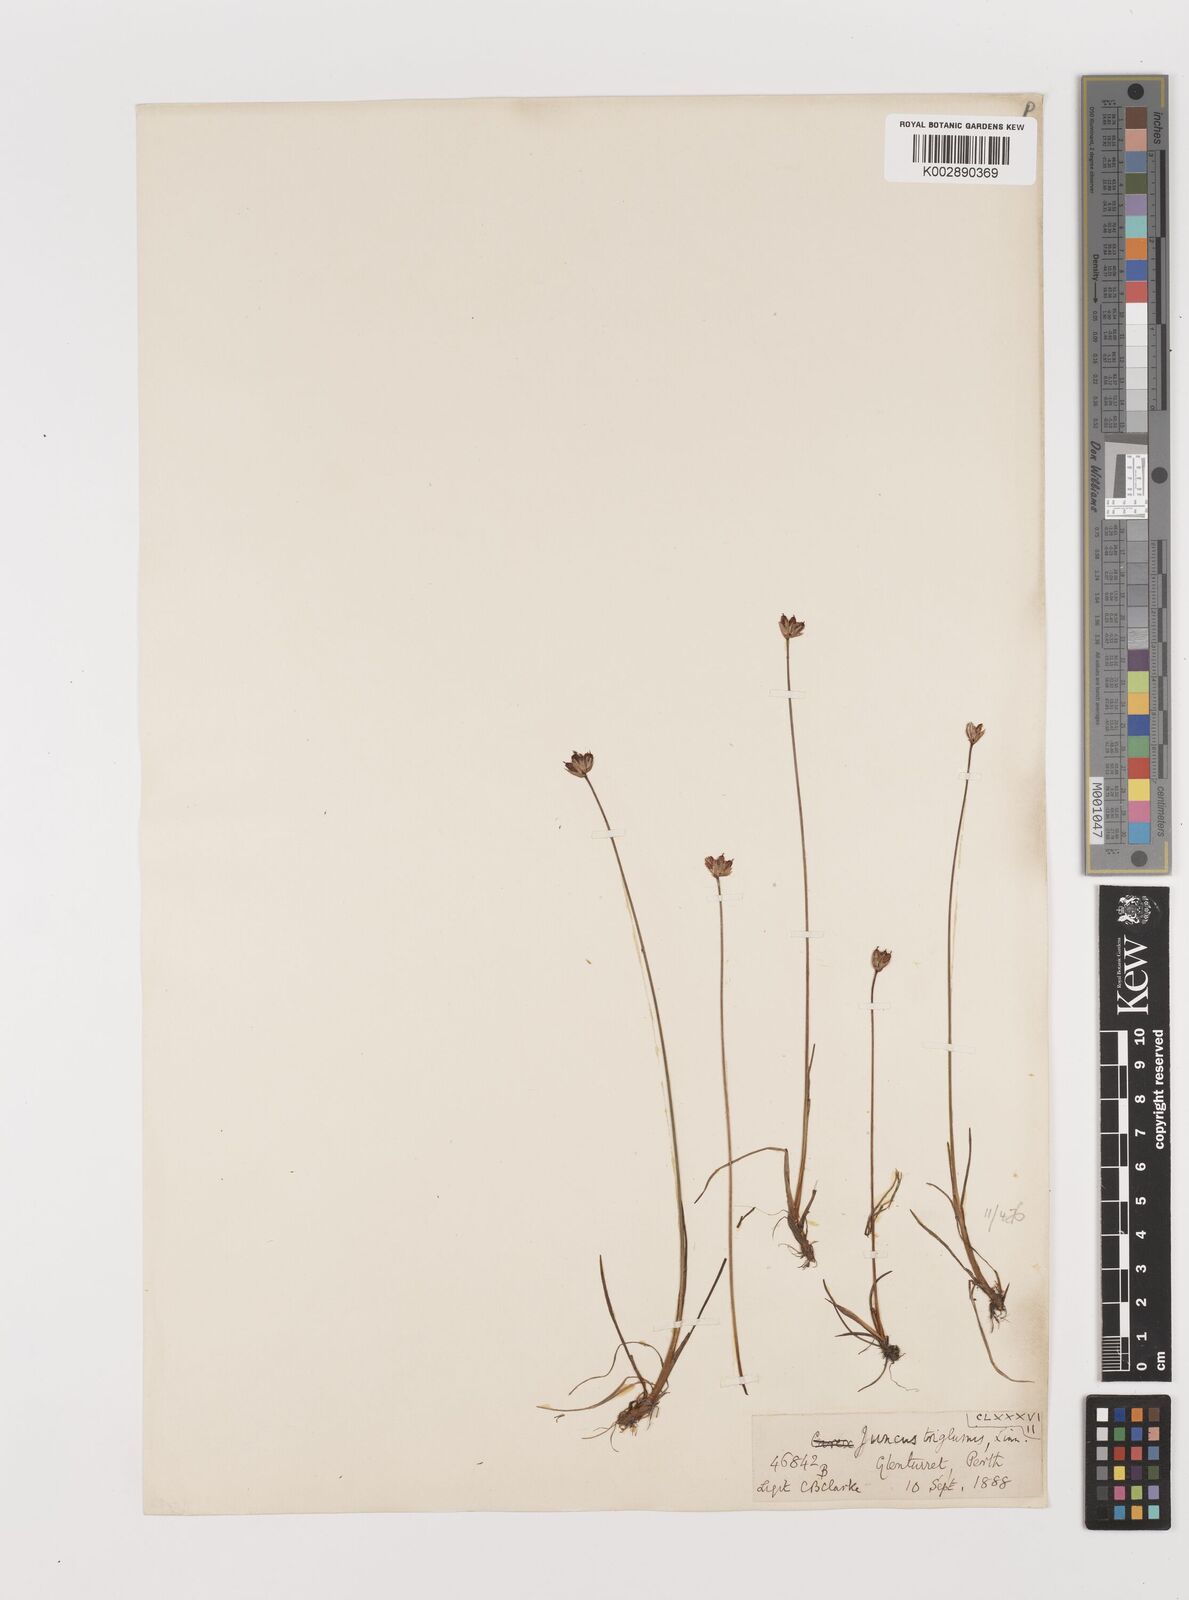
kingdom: Plantae
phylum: Tracheophyta
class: Liliopsida
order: Poales
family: Juncaceae
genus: Juncus
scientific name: Juncus triglumis
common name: Three-flowered rush
